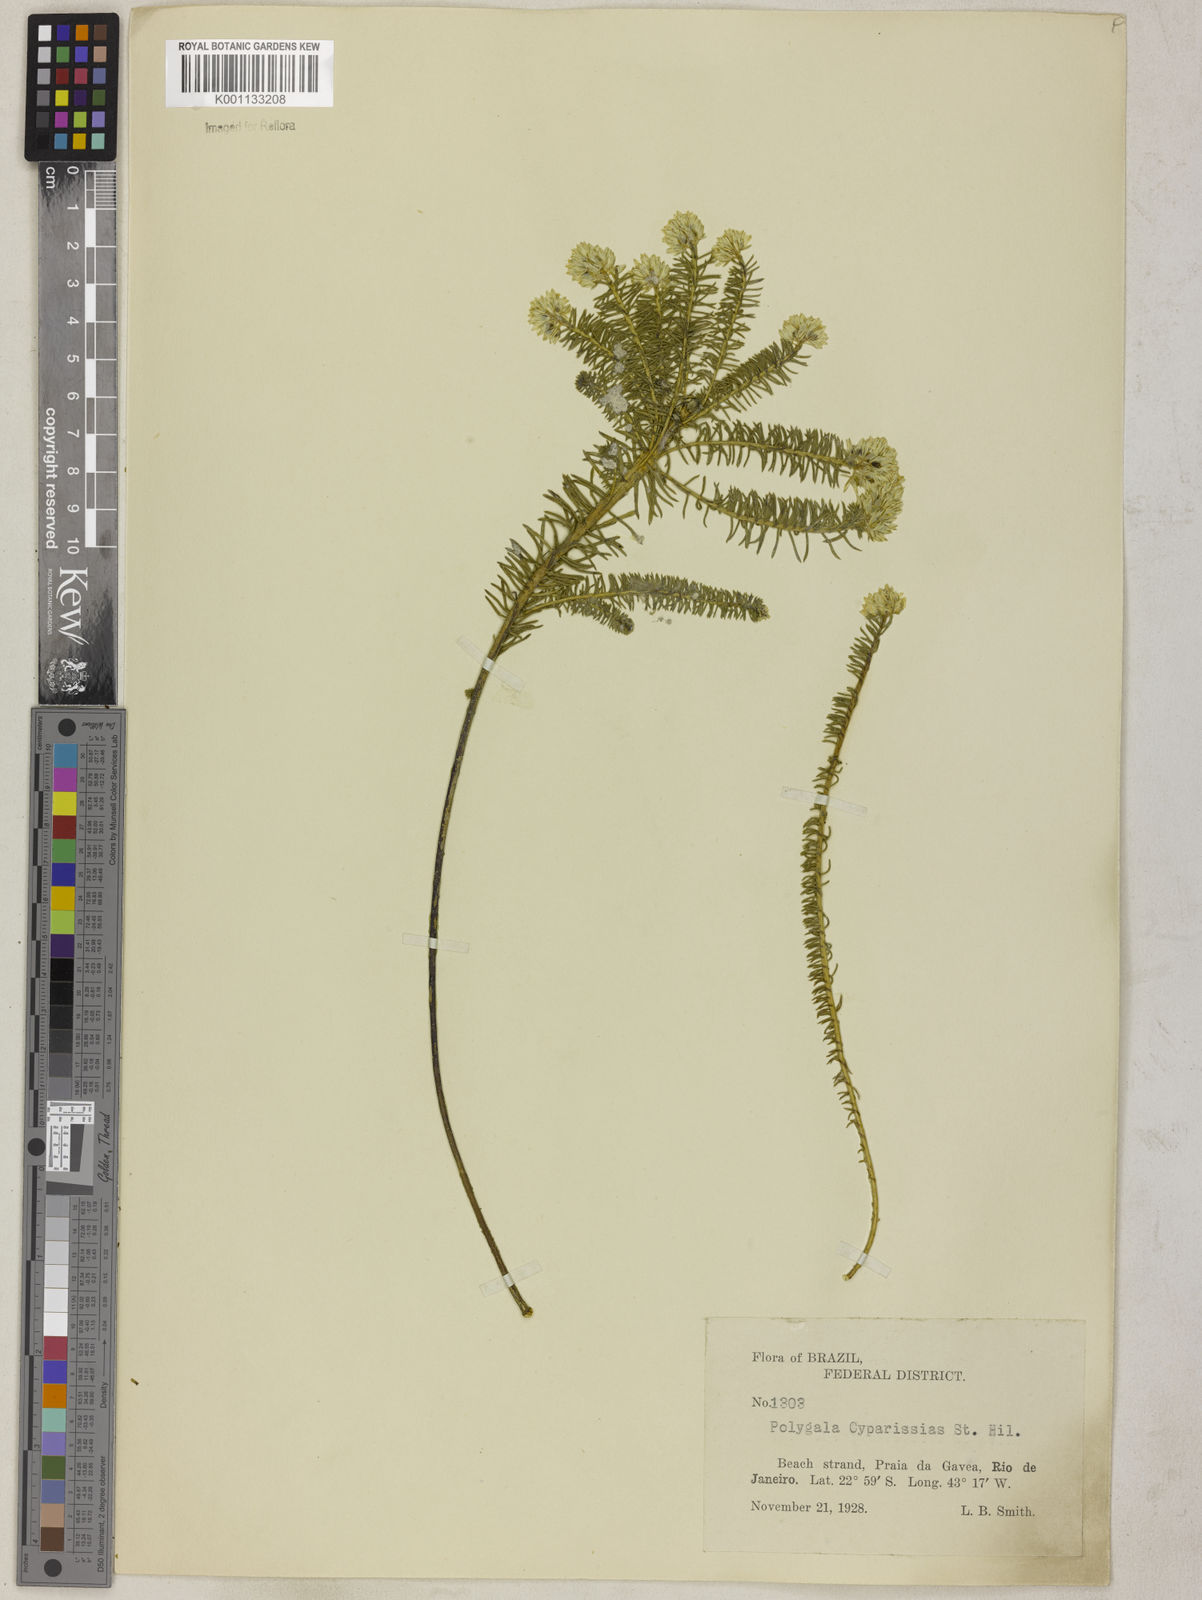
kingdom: Plantae
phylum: Tracheophyta
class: Magnoliopsida
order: Fabales
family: Polygalaceae
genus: Polygala
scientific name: Polygala cyparissias
